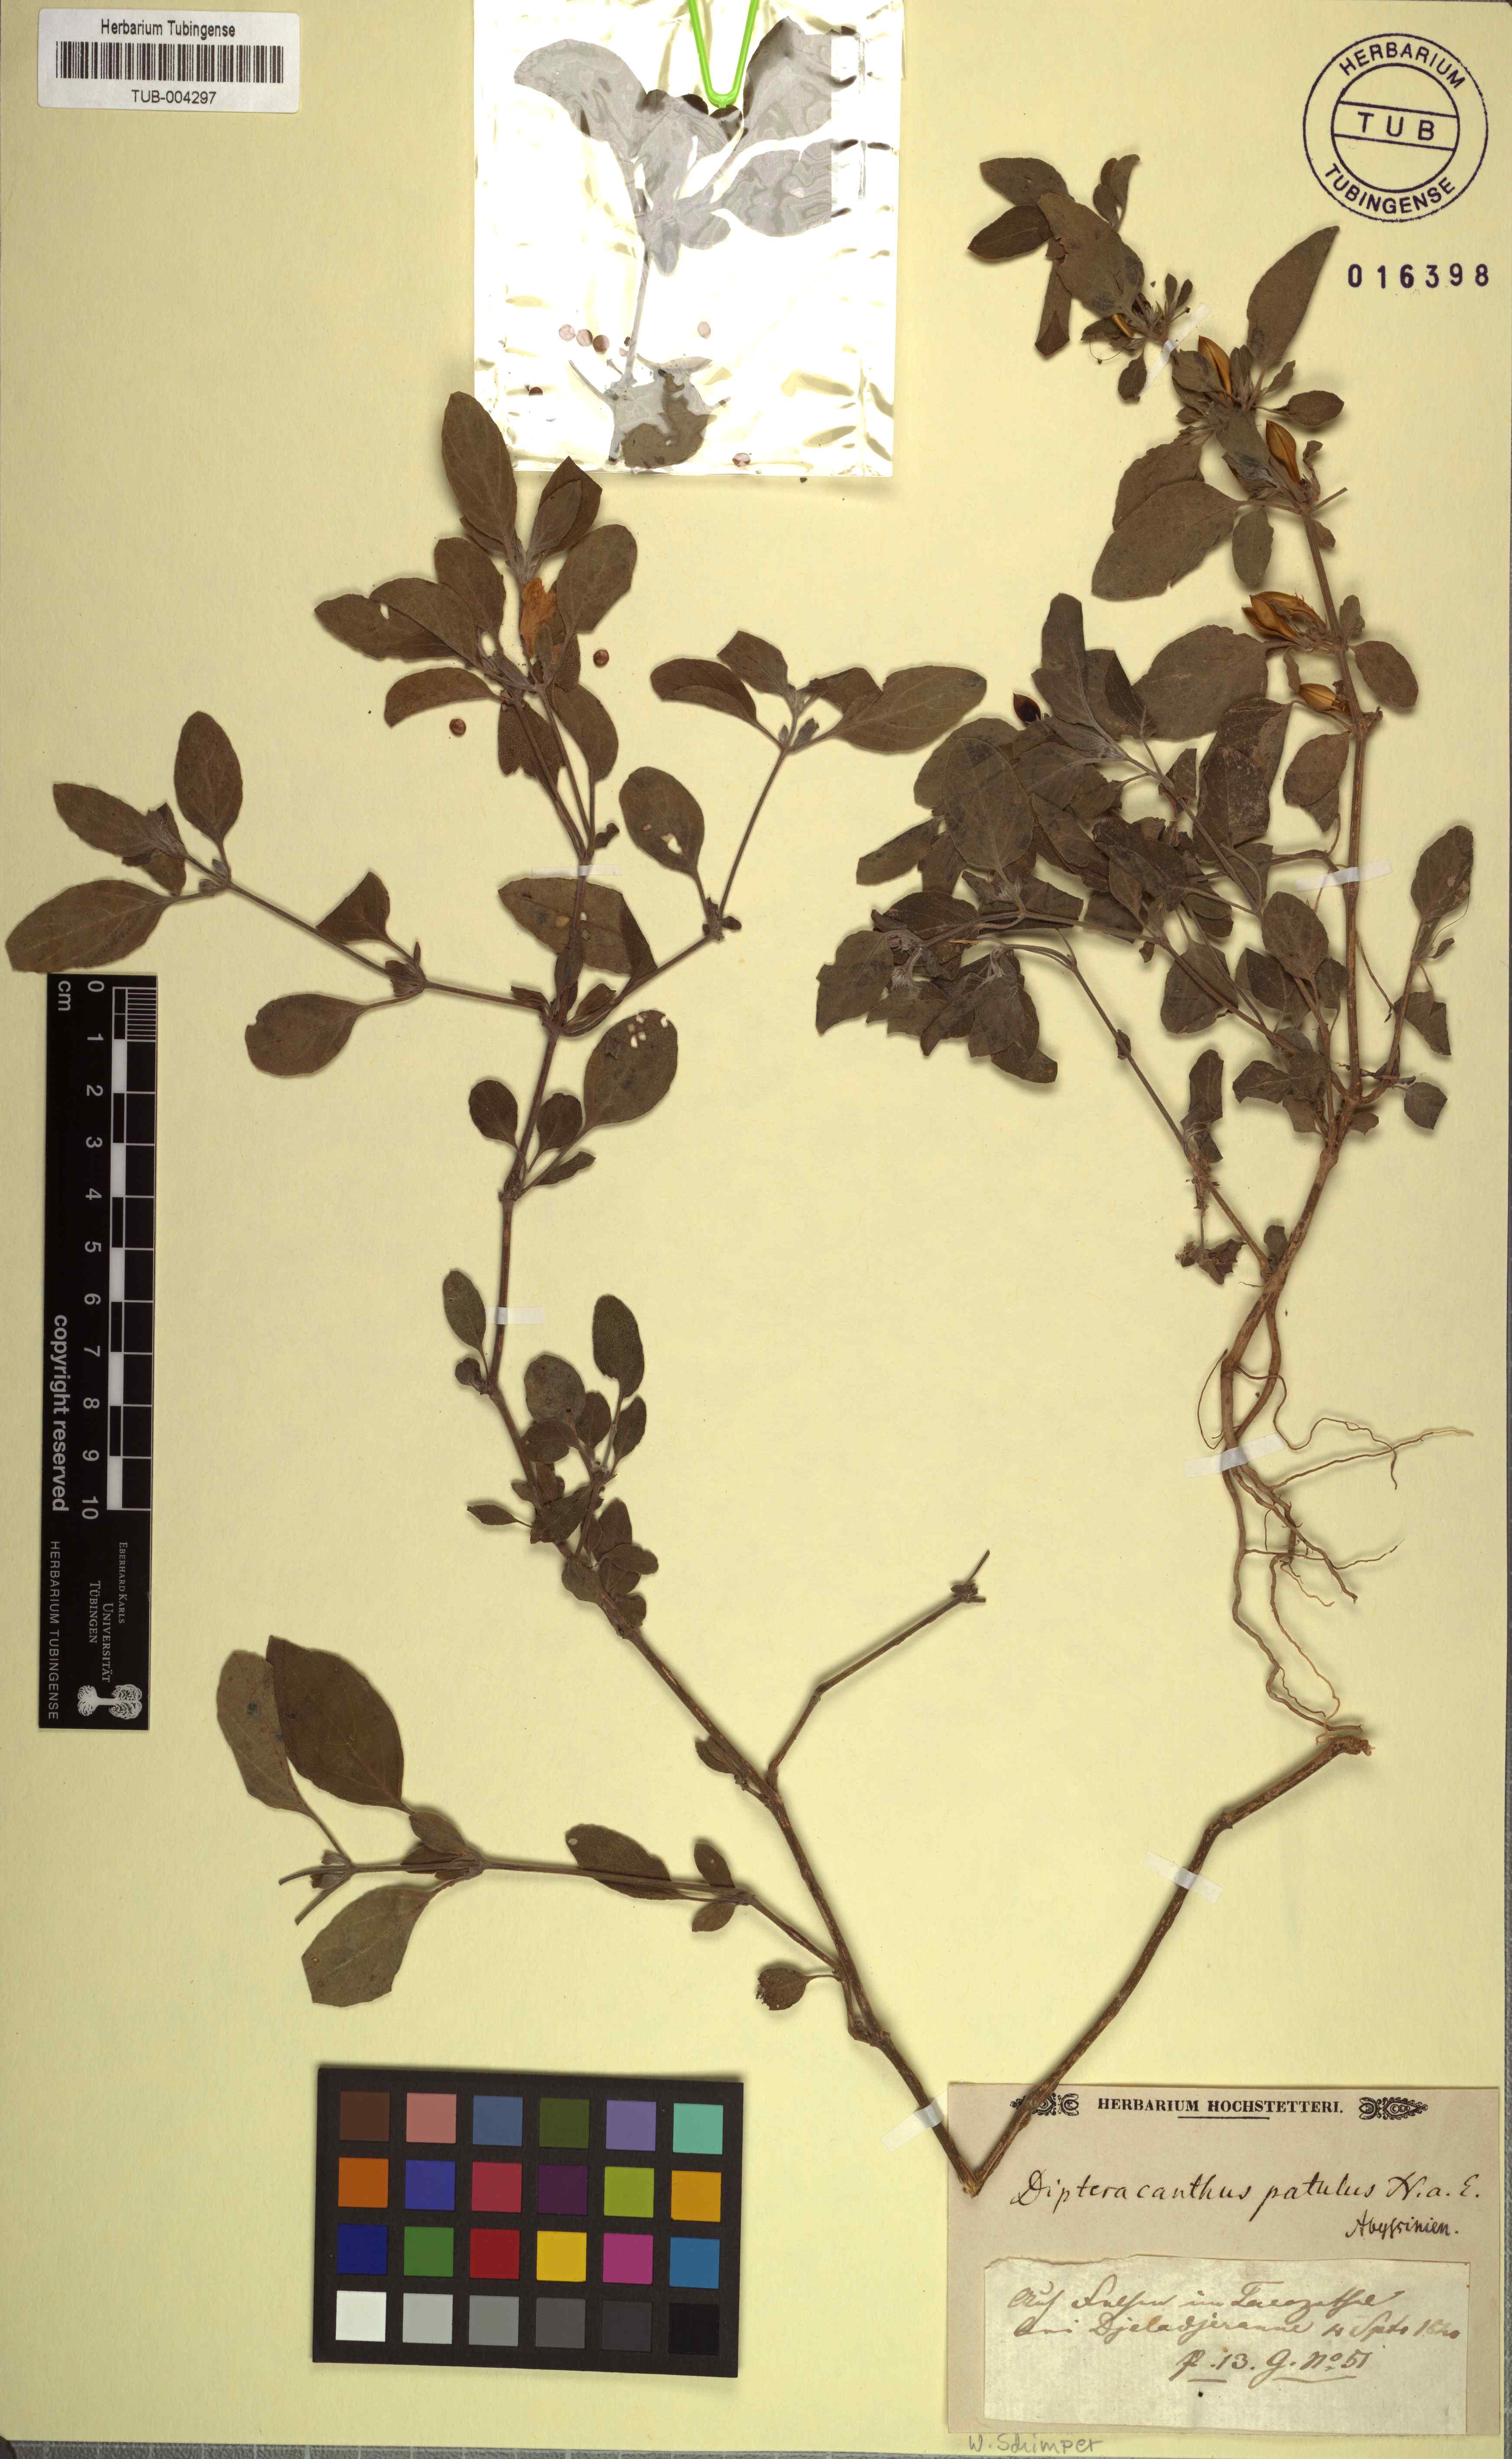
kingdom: Plantae
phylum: Tracheophyta
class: Magnoliopsida
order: Lamiales
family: Acanthaceae
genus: Ruellia
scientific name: Ruellia patula
